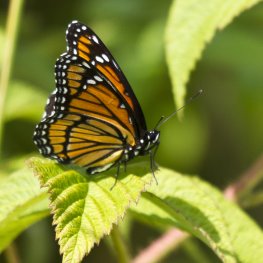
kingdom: Animalia
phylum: Arthropoda
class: Insecta
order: Lepidoptera
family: Nymphalidae
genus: Limenitis
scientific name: Limenitis archippus
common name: Viceroy
